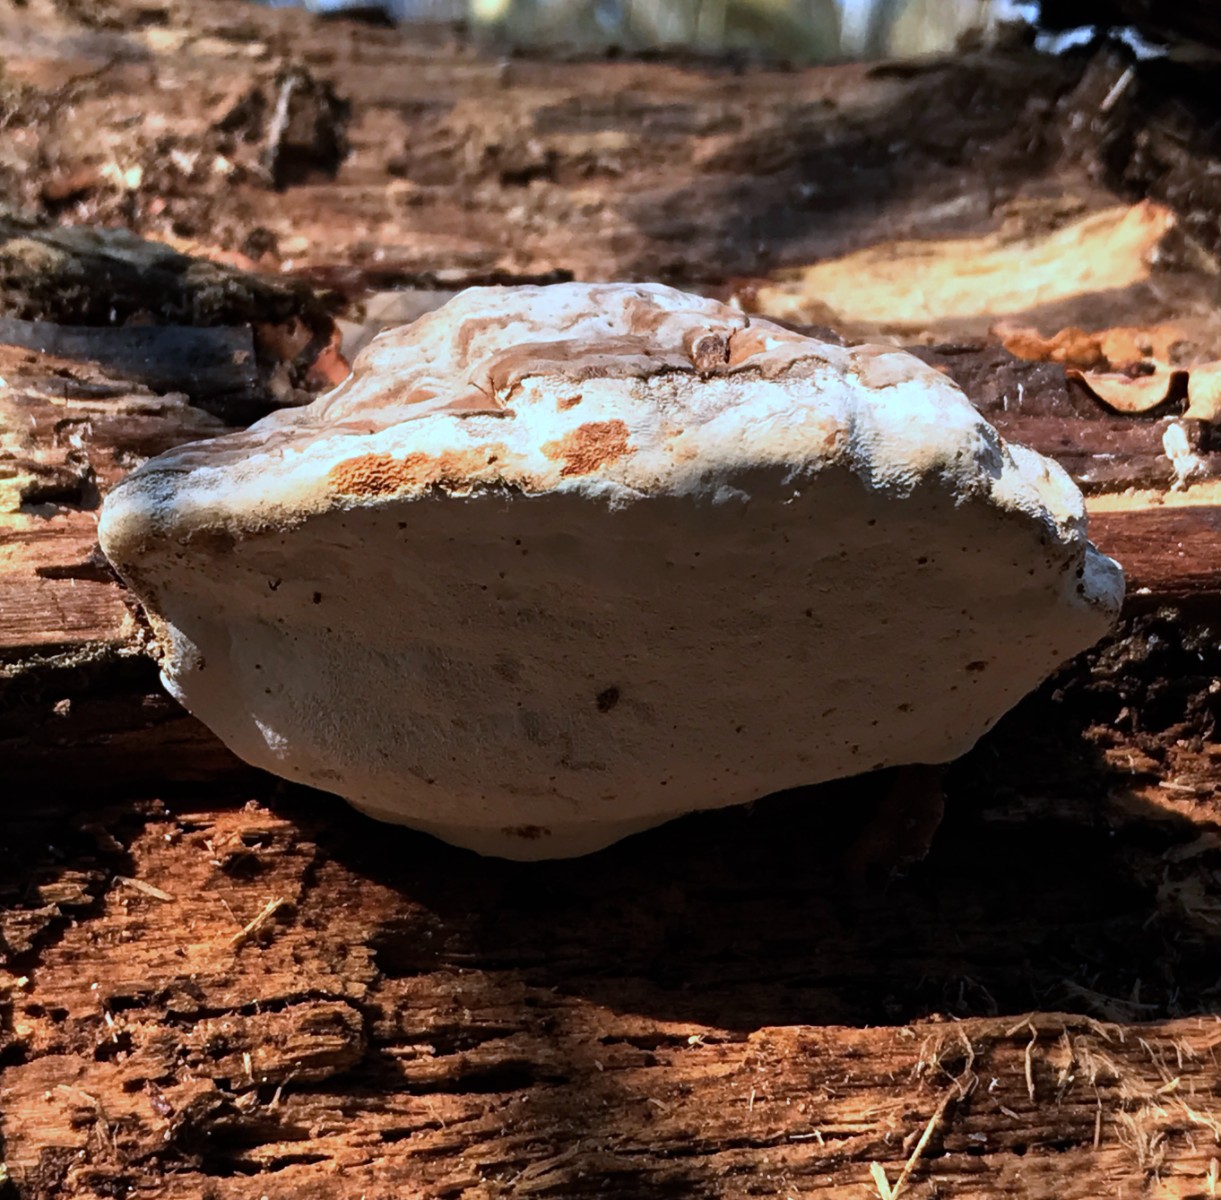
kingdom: Fungi
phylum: Basidiomycota
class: Agaricomycetes
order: Polyporales
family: Polyporaceae
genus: Fomes
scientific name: Fomes fomentarius
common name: tøndersvamp
